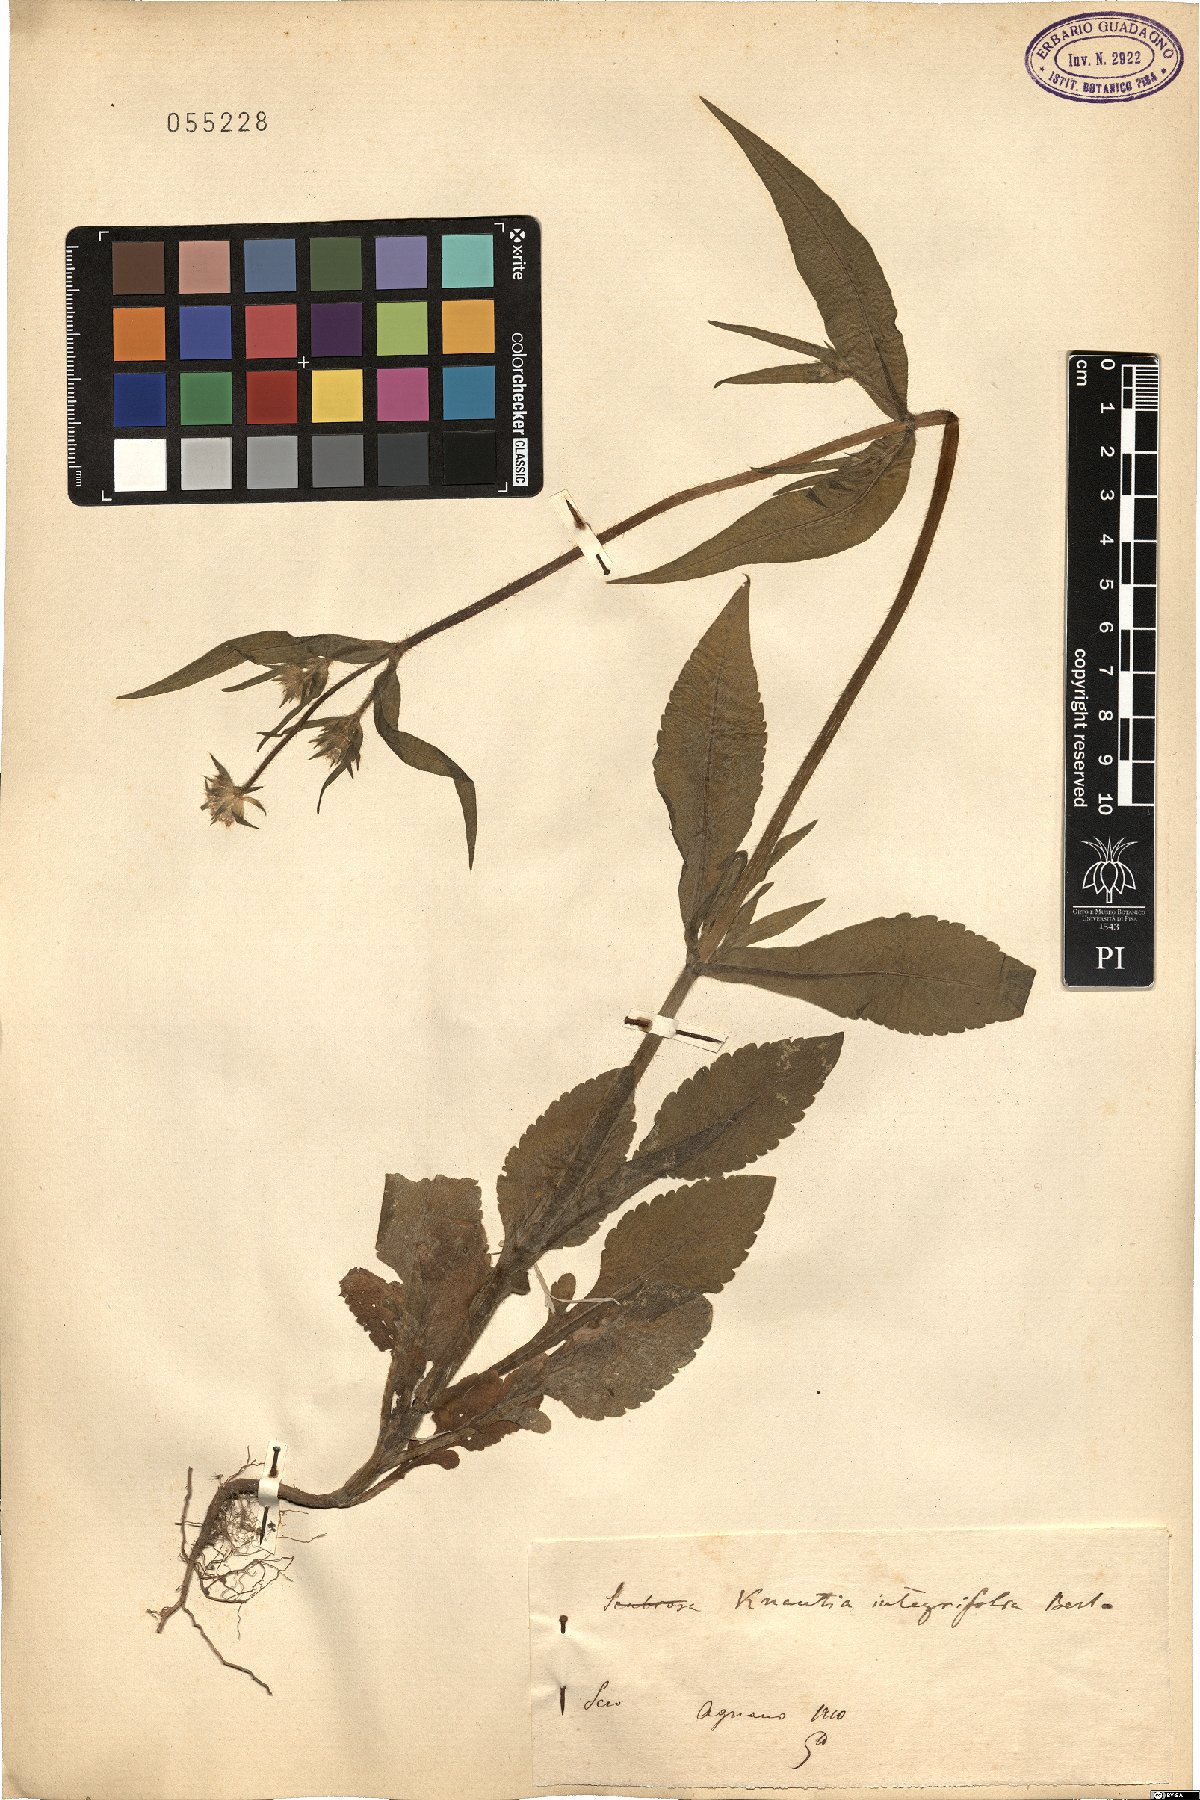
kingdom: Plantae
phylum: Tracheophyta
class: Magnoliopsida
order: Dipsacales
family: Caprifoliaceae
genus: Knautia
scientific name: Knautia integrifolia
